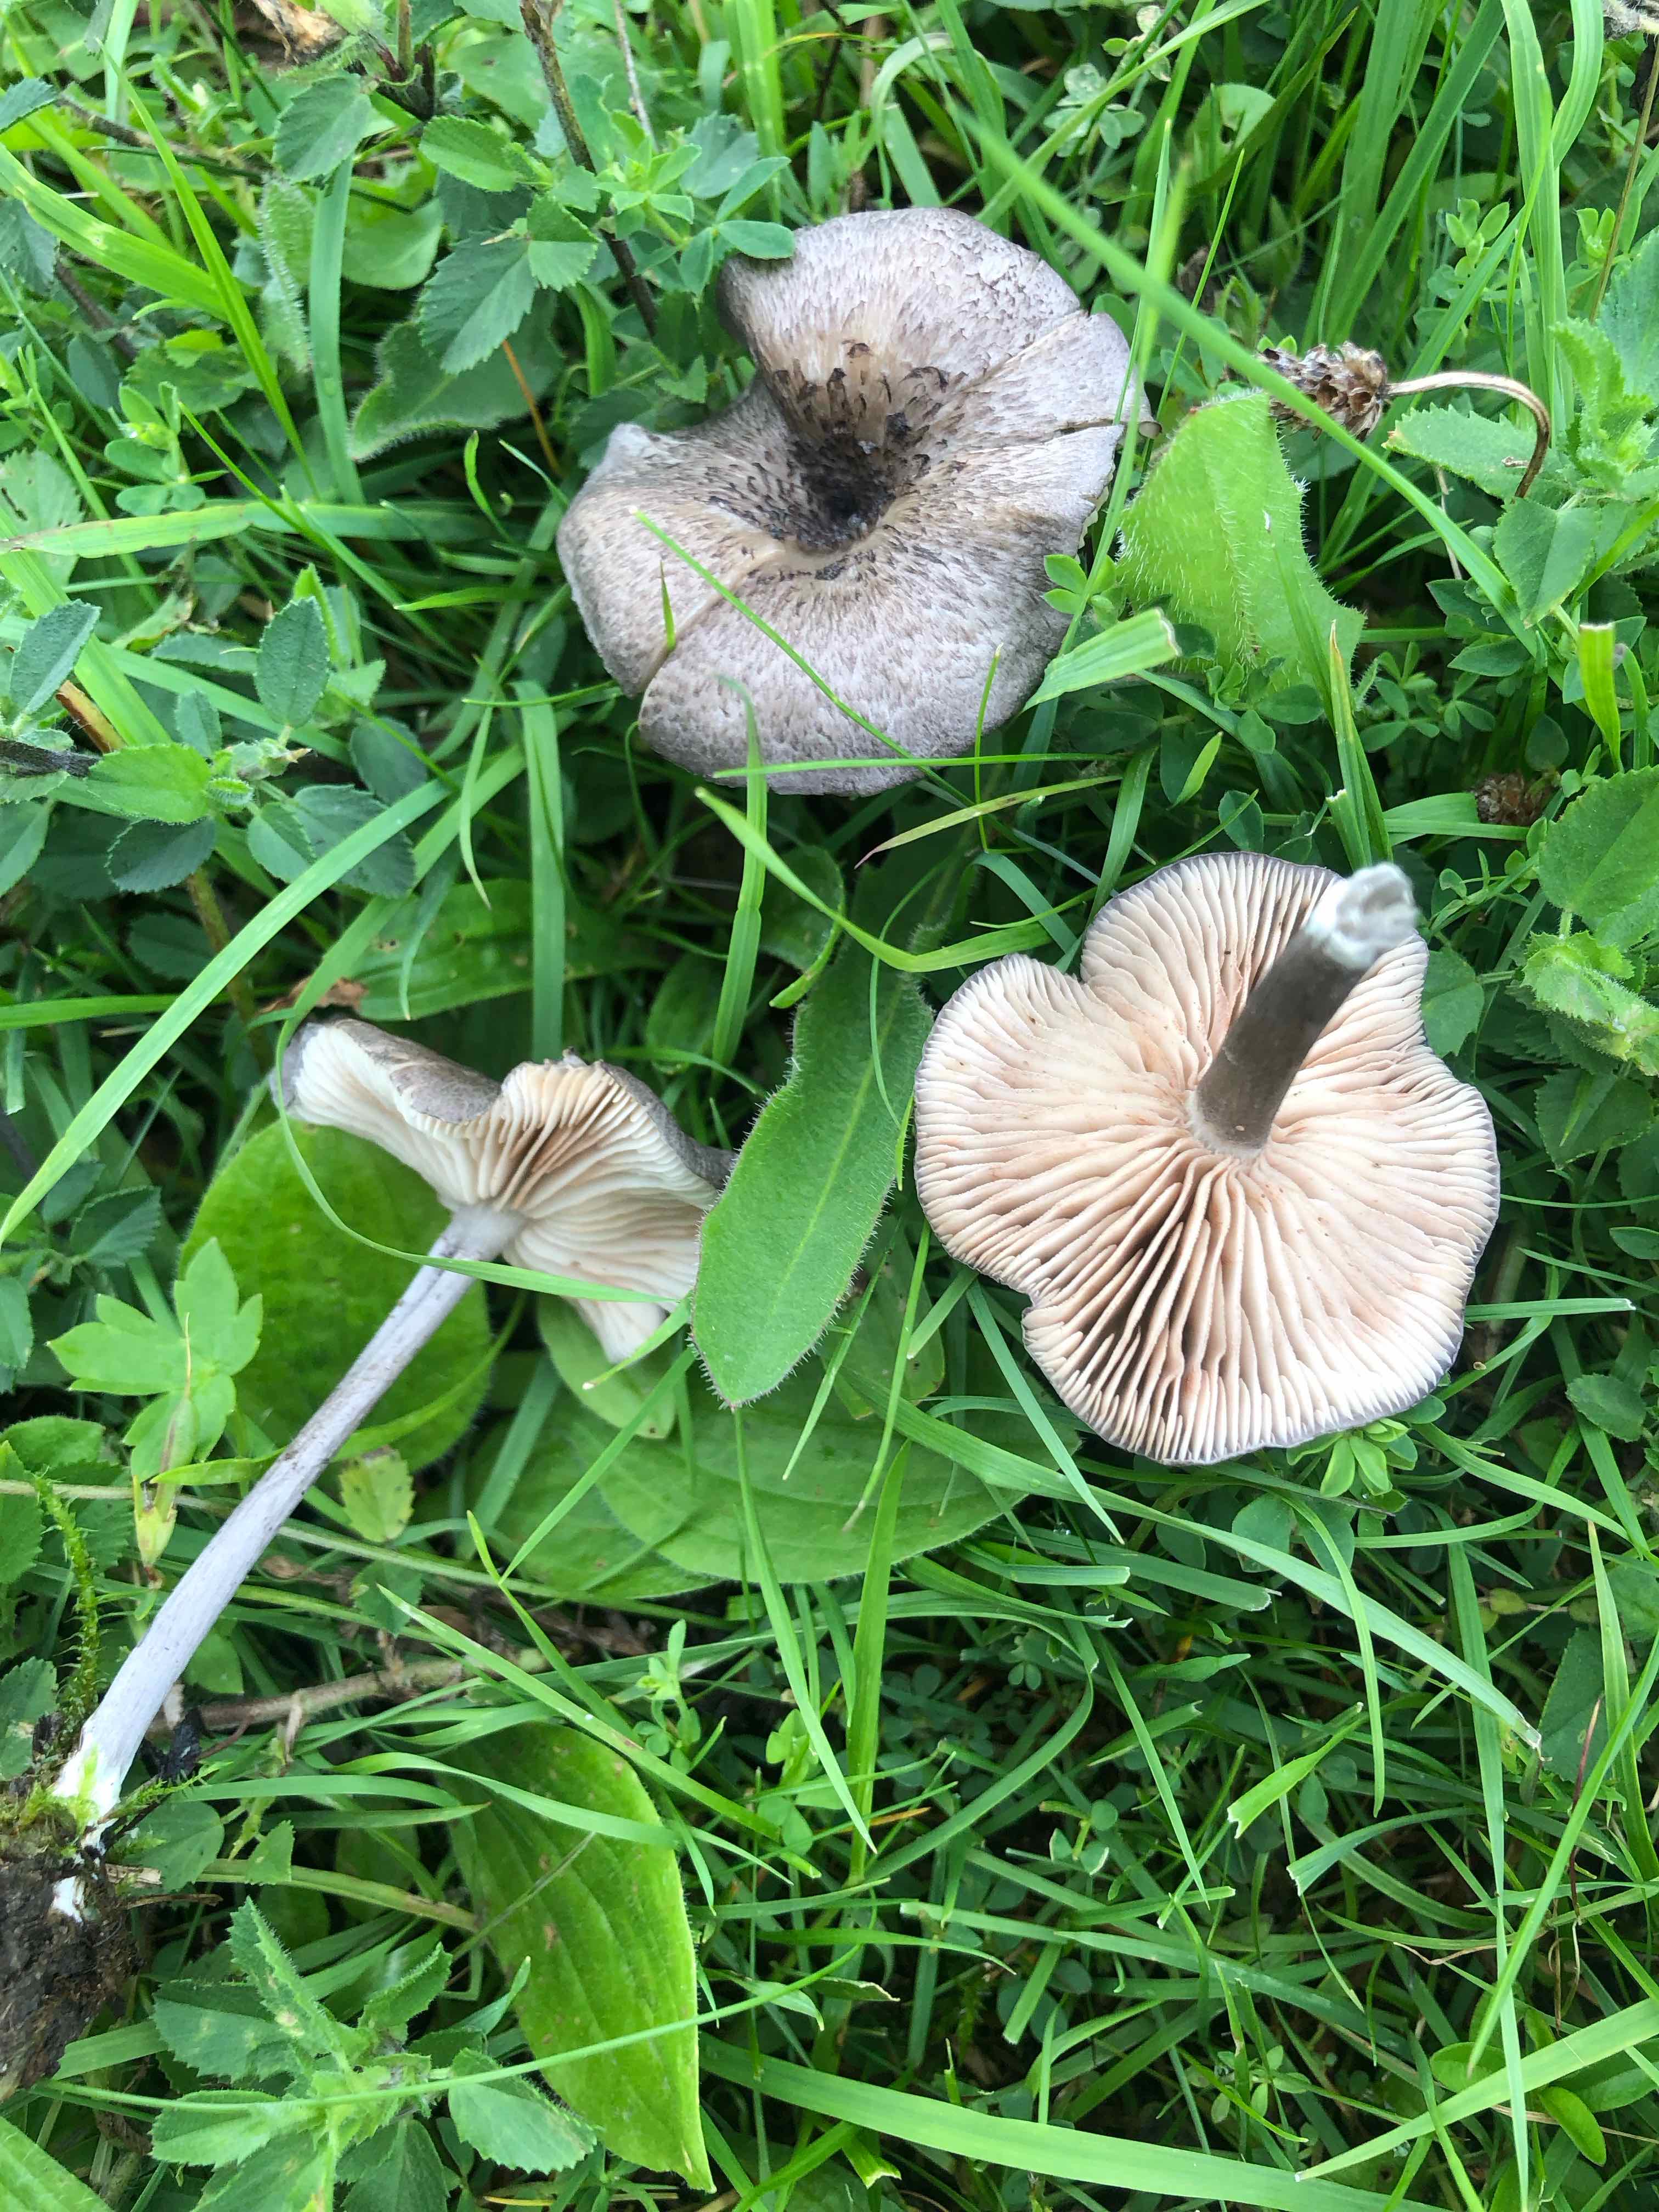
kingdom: Fungi
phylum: Basidiomycota
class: Agaricomycetes
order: Agaricales
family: Entolomataceae
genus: Entoloma
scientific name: Entoloma mougeotii
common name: violetgrå rødblad
